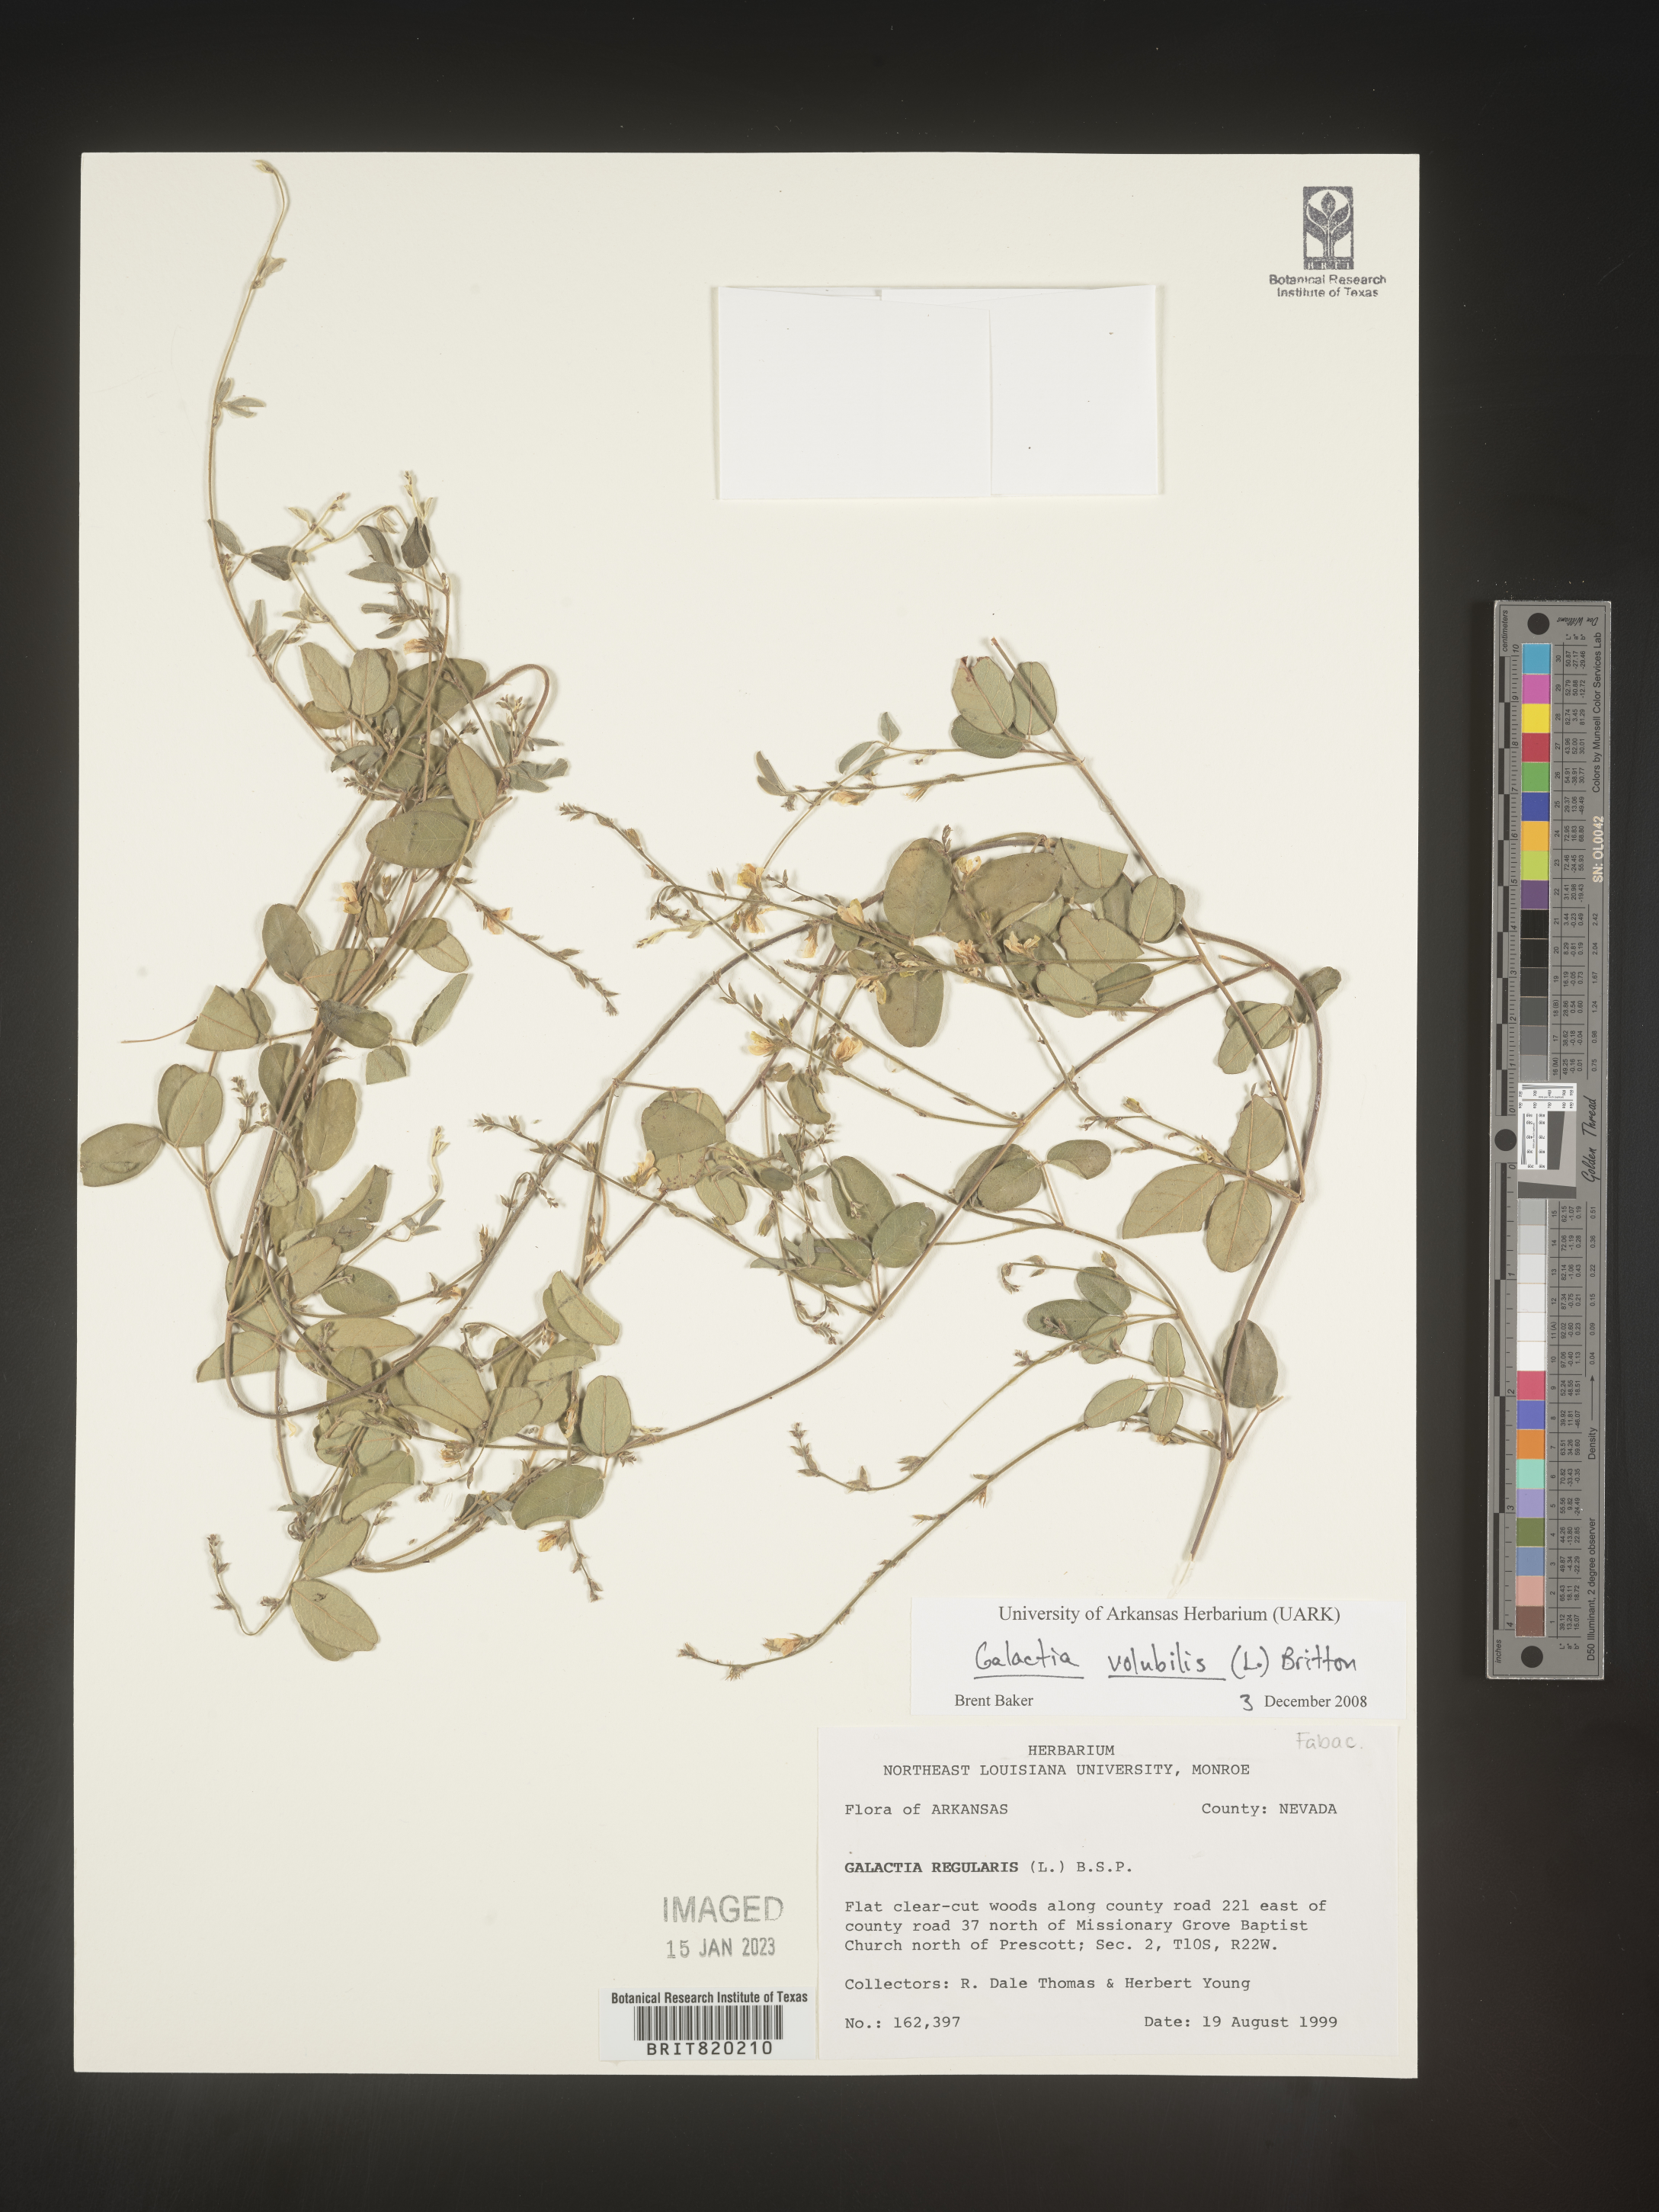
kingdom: Plantae
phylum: Tracheophyta
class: Magnoliopsida
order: Fabales
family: Fabaceae
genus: Galactia
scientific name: Galactia volubilis
